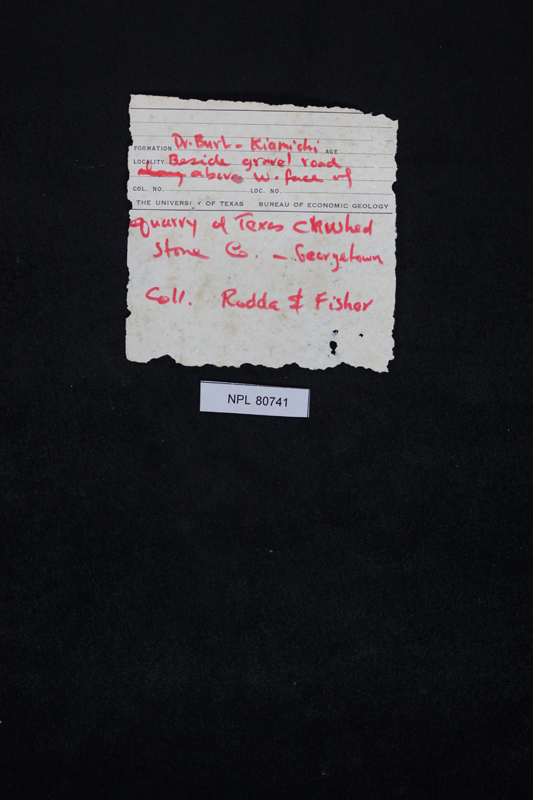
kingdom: Animalia
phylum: Mollusca
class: Cephalopoda
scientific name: Cephalopoda
